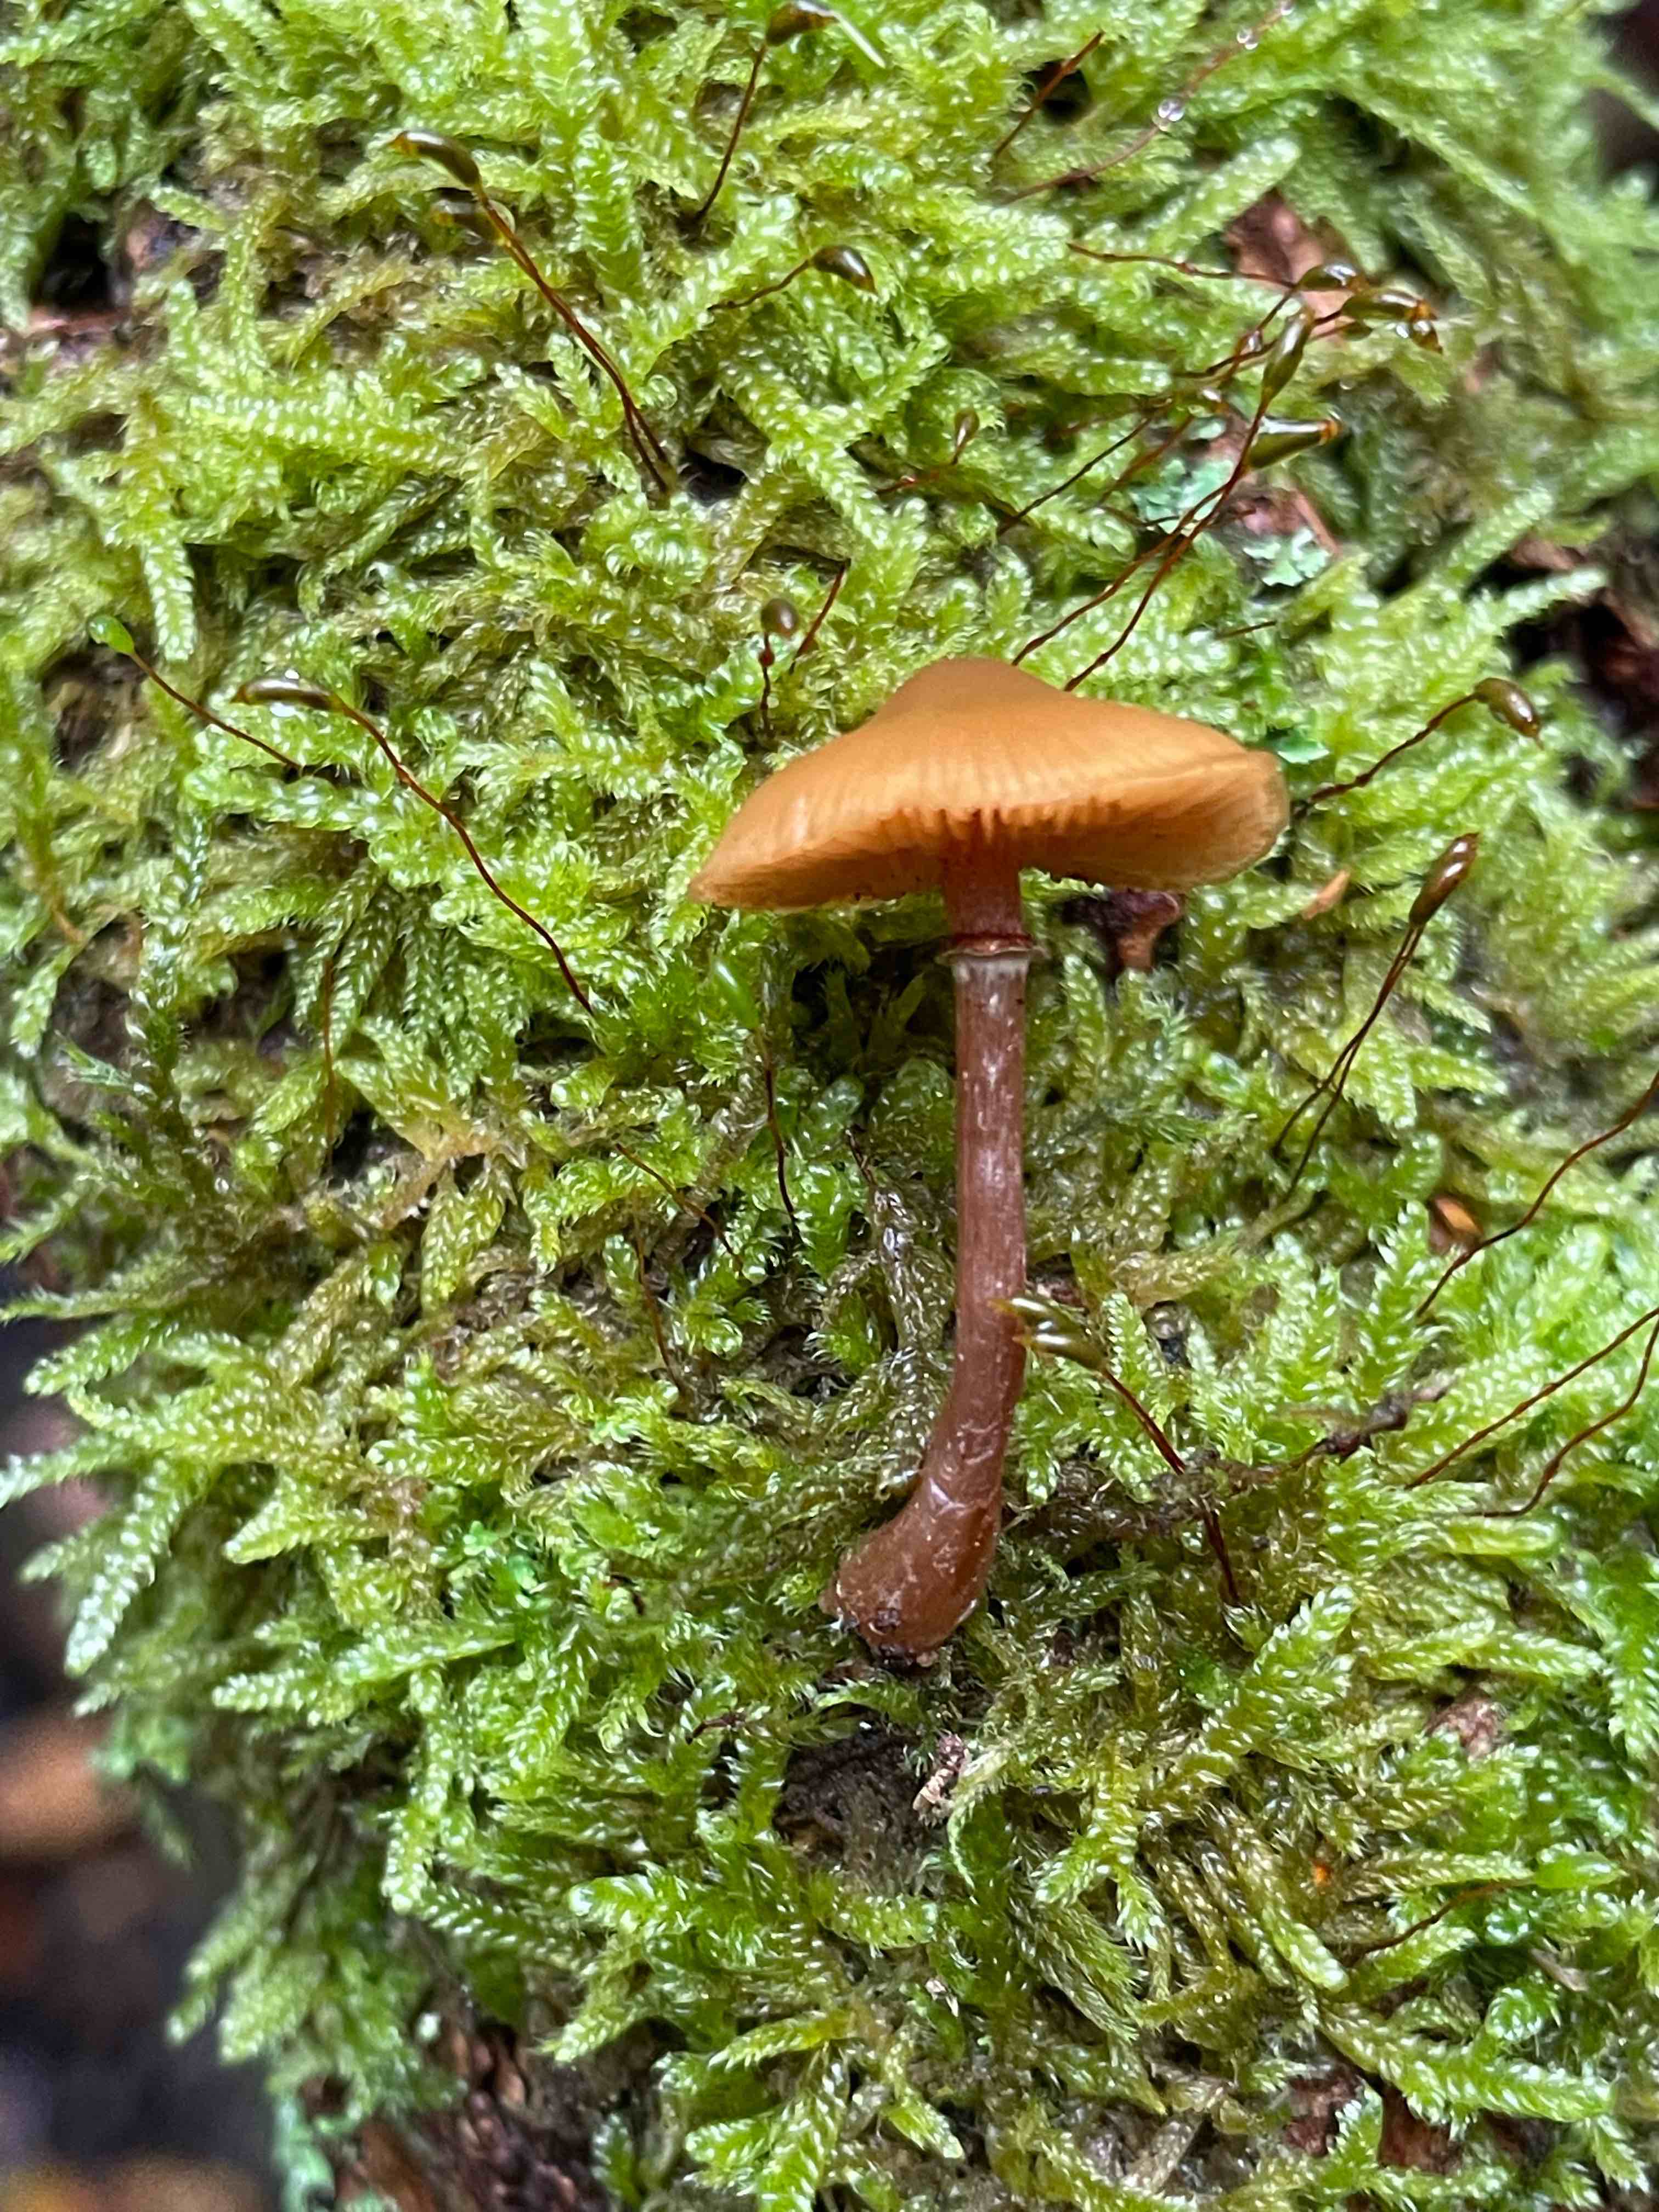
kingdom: Fungi
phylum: Basidiomycota
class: Agaricomycetes
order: Agaricales
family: Hymenogastraceae
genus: Galerina
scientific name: Galerina marginata
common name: randbæltet hjelmhat
